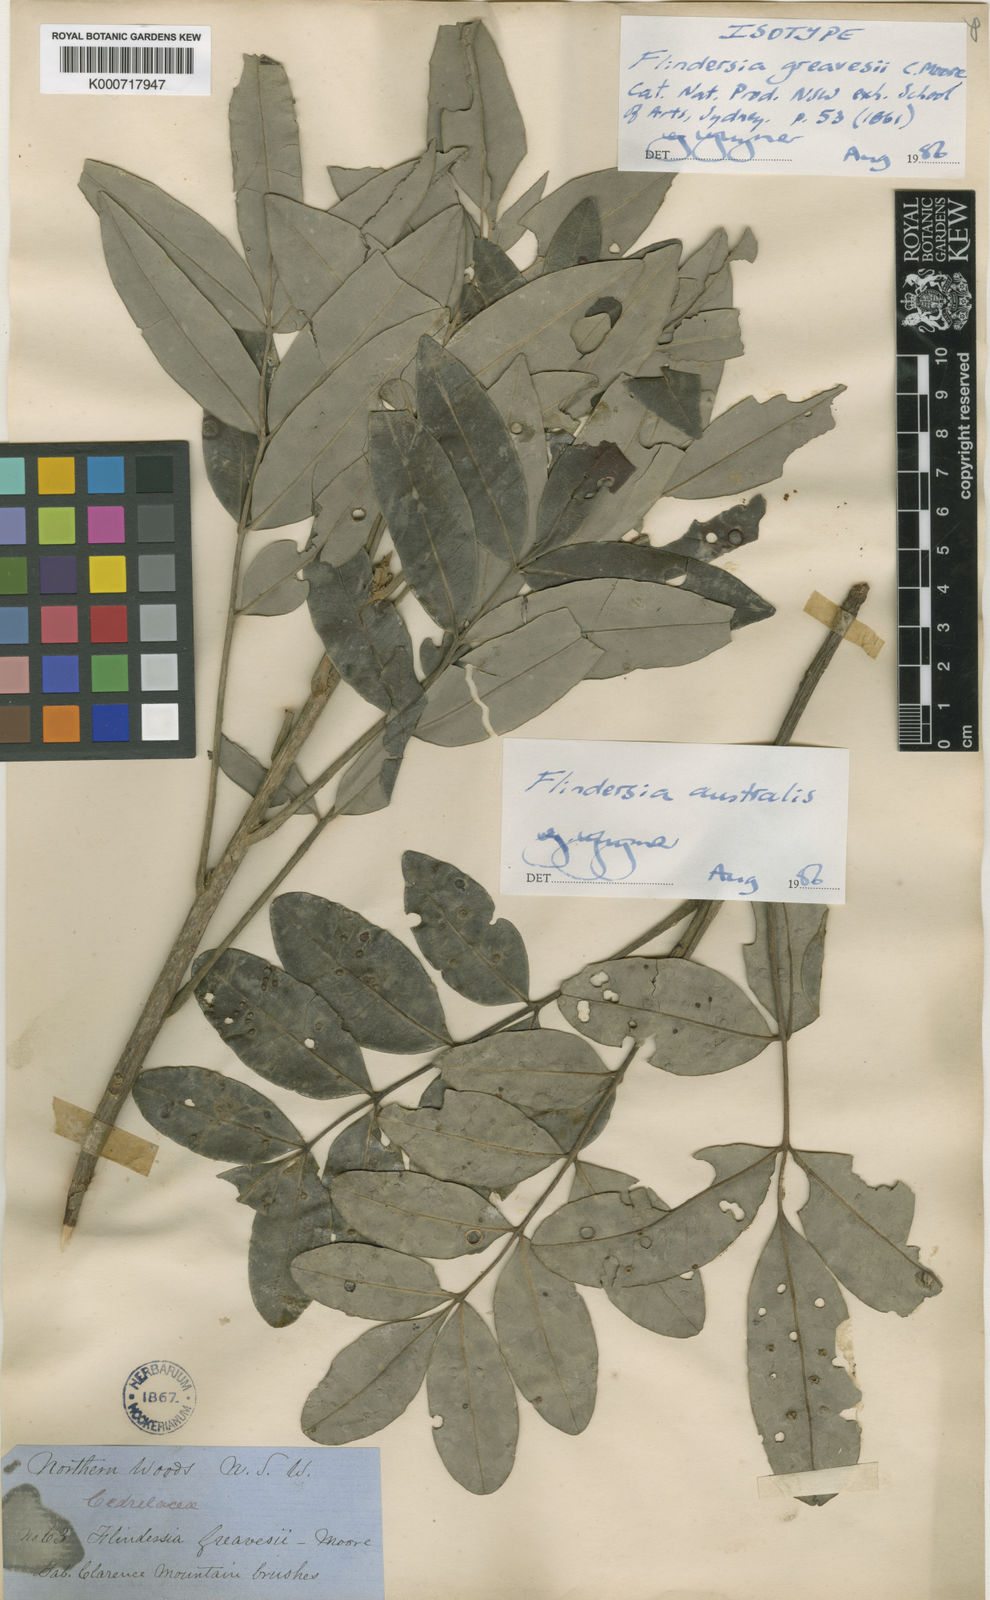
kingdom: Plantae
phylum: Tracheophyta
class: Magnoliopsida
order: Sapindales
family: Rutaceae
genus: Flindersia
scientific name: Flindersia australis
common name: Australian-teak
